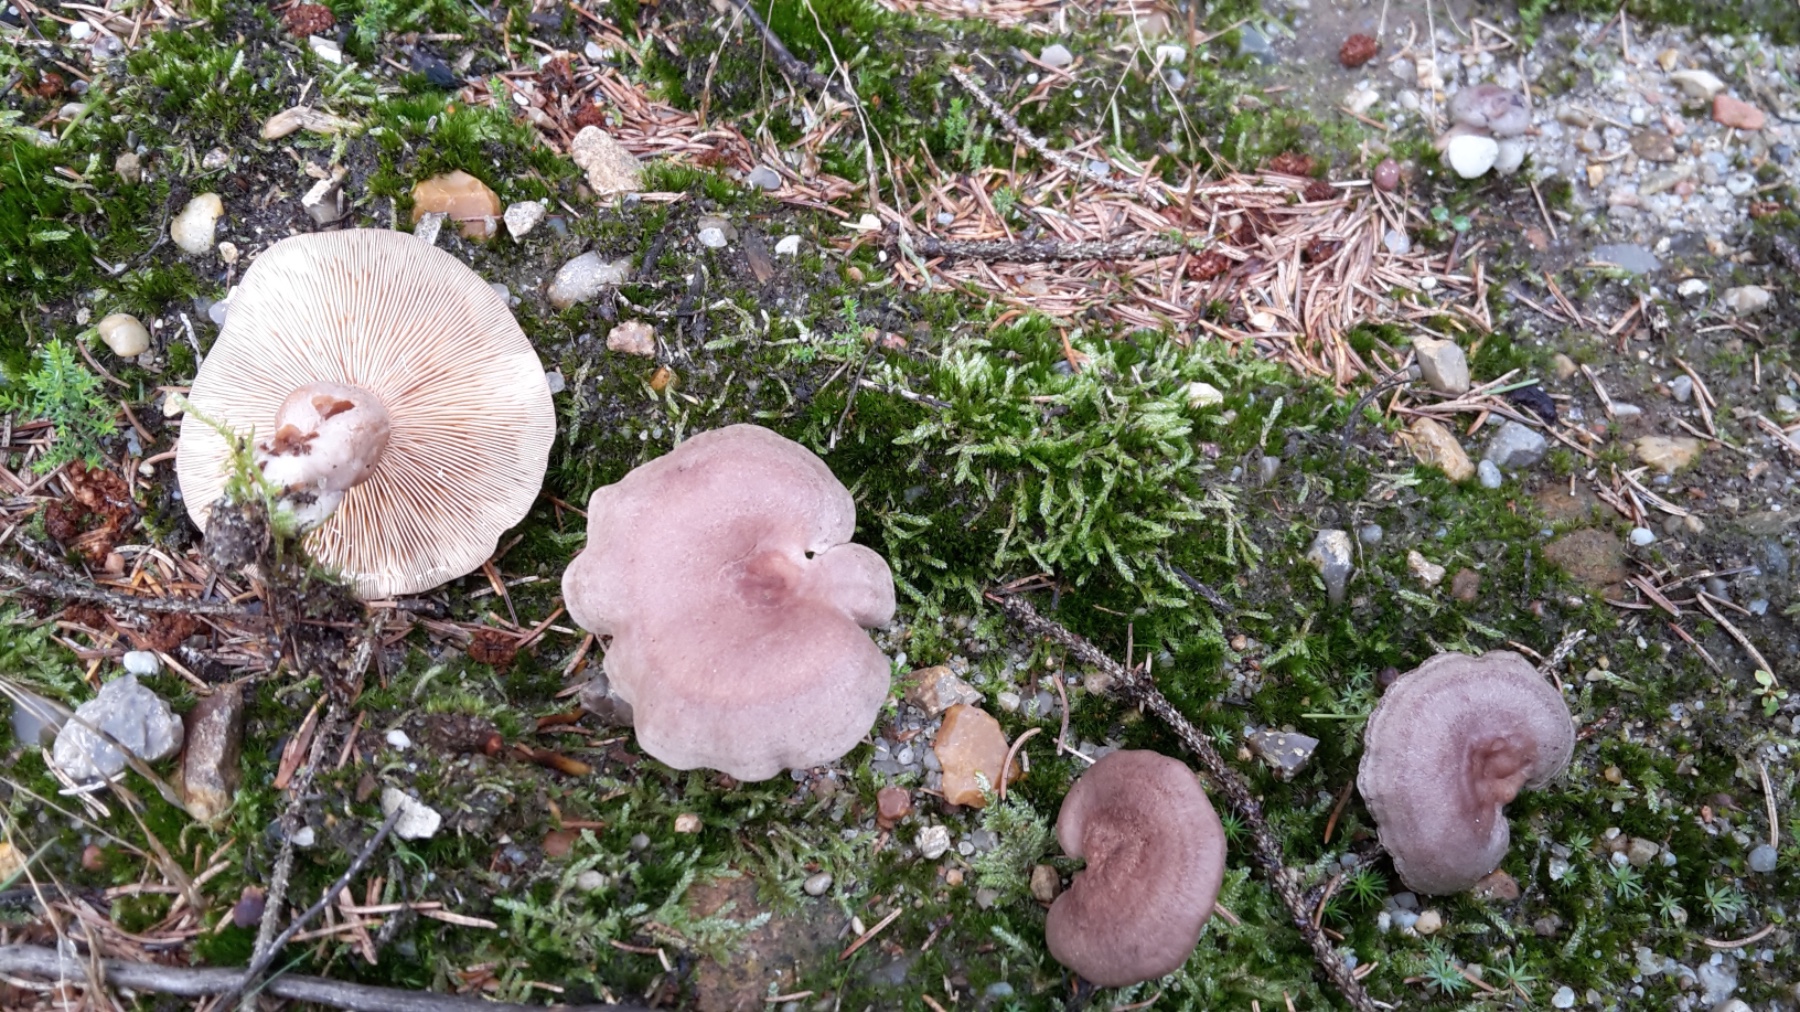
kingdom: Fungi
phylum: Basidiomycota
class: Agaricomycetes
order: Russulales
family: Russulaceae
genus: Lactarius
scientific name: Lactarius mammosus
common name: kokosbrun mælkehat
